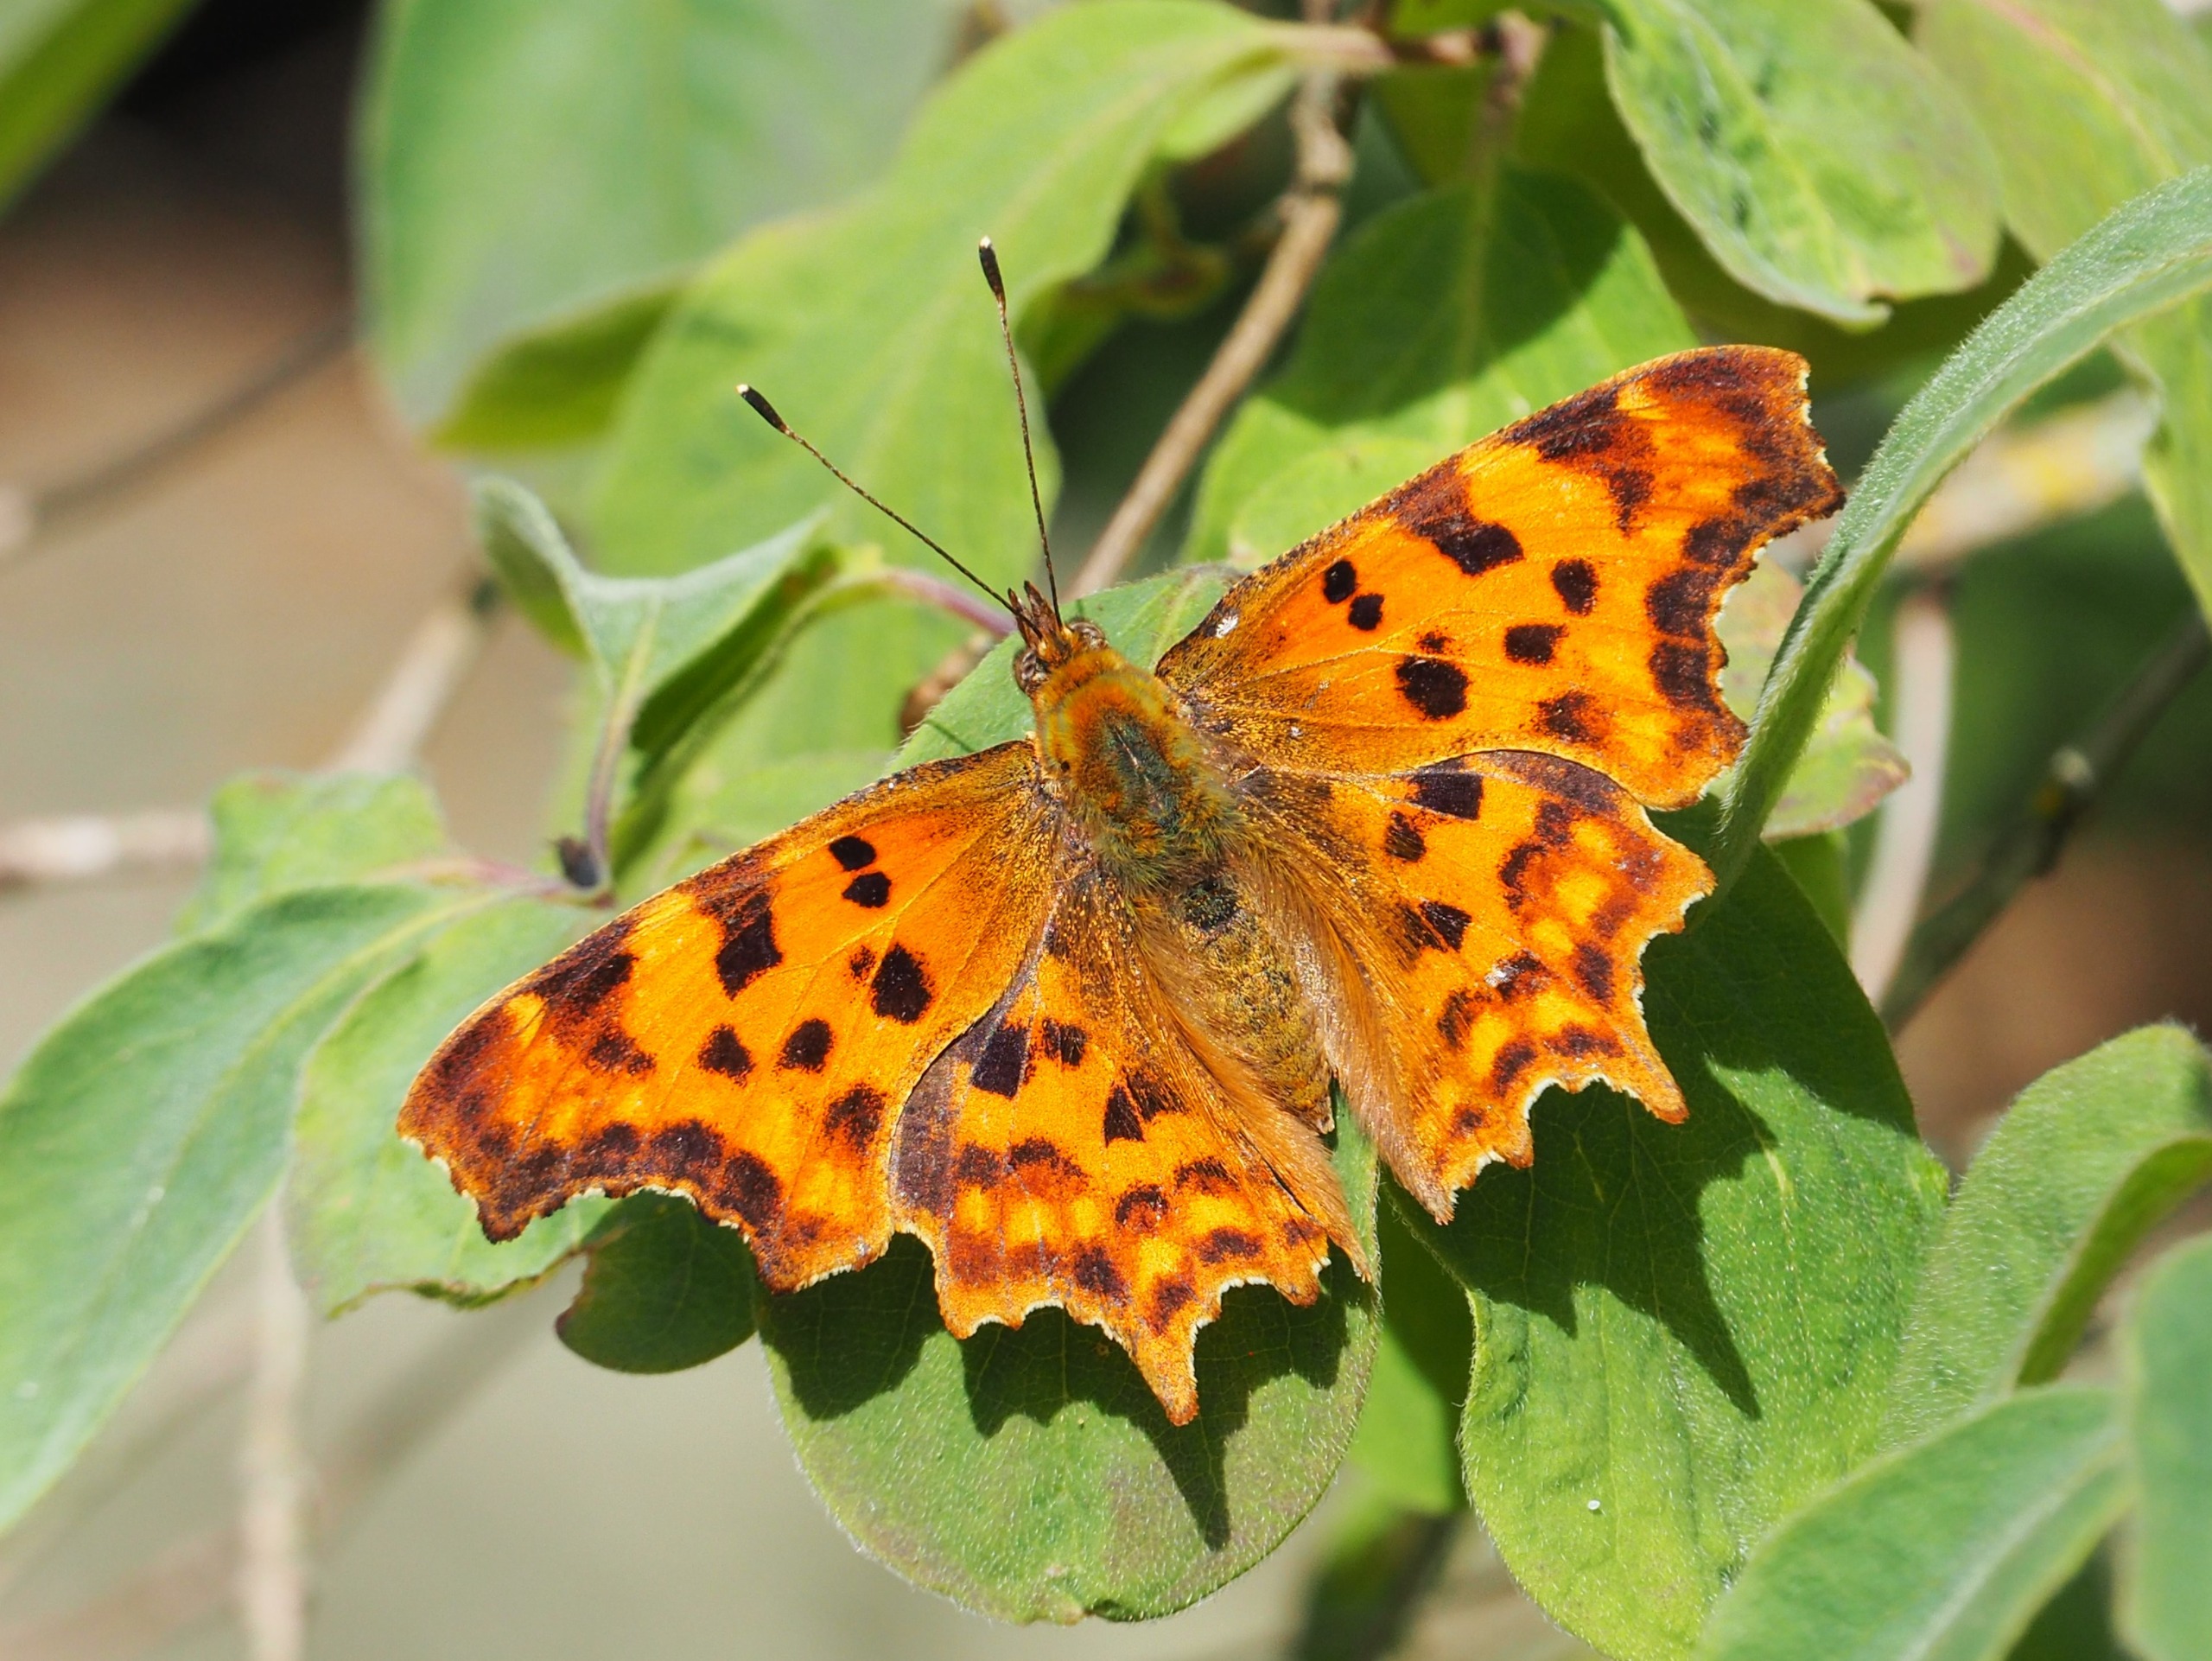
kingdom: Animalia
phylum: Arthropoda
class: Insecta
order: Lepidoptera
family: Nymphalidae
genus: Polygonia
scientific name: Polygonia c-album
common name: Det hvide C
